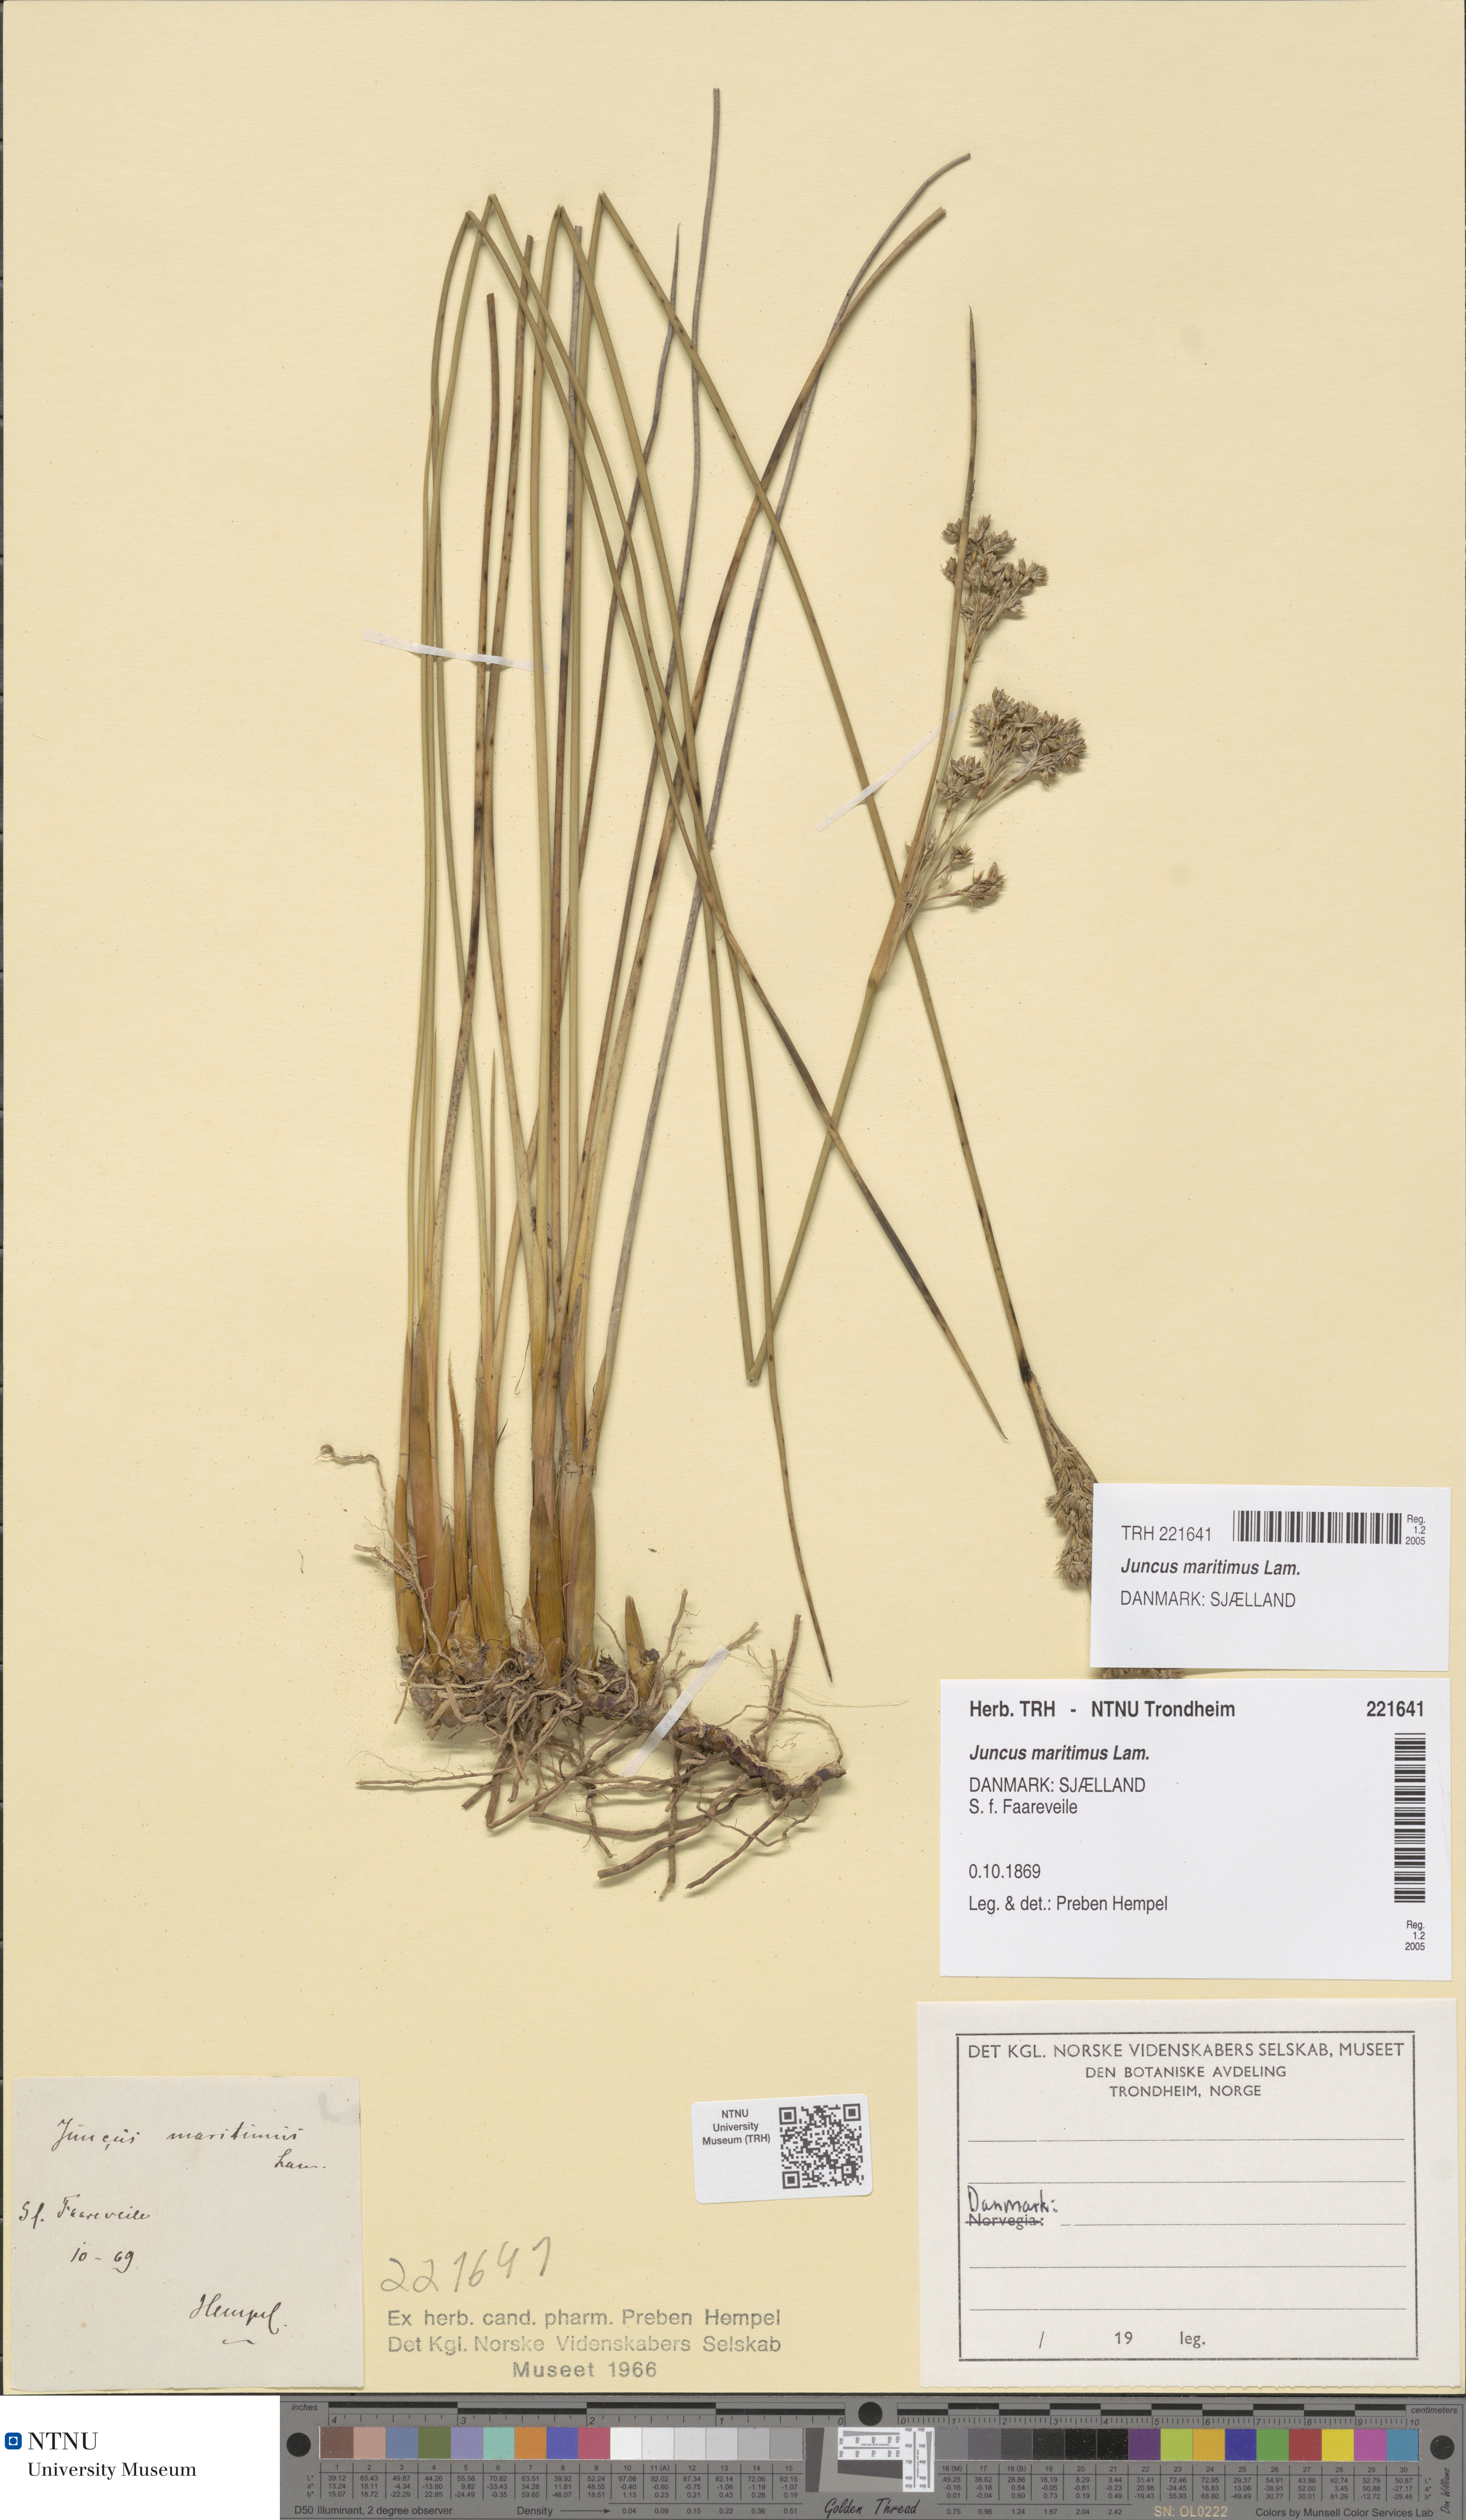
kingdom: Plantae
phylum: Tracheophyta
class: Liliopsida
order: Poales
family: Juncaceae
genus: Juncus
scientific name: Juncus maritimus
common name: Sea rush
